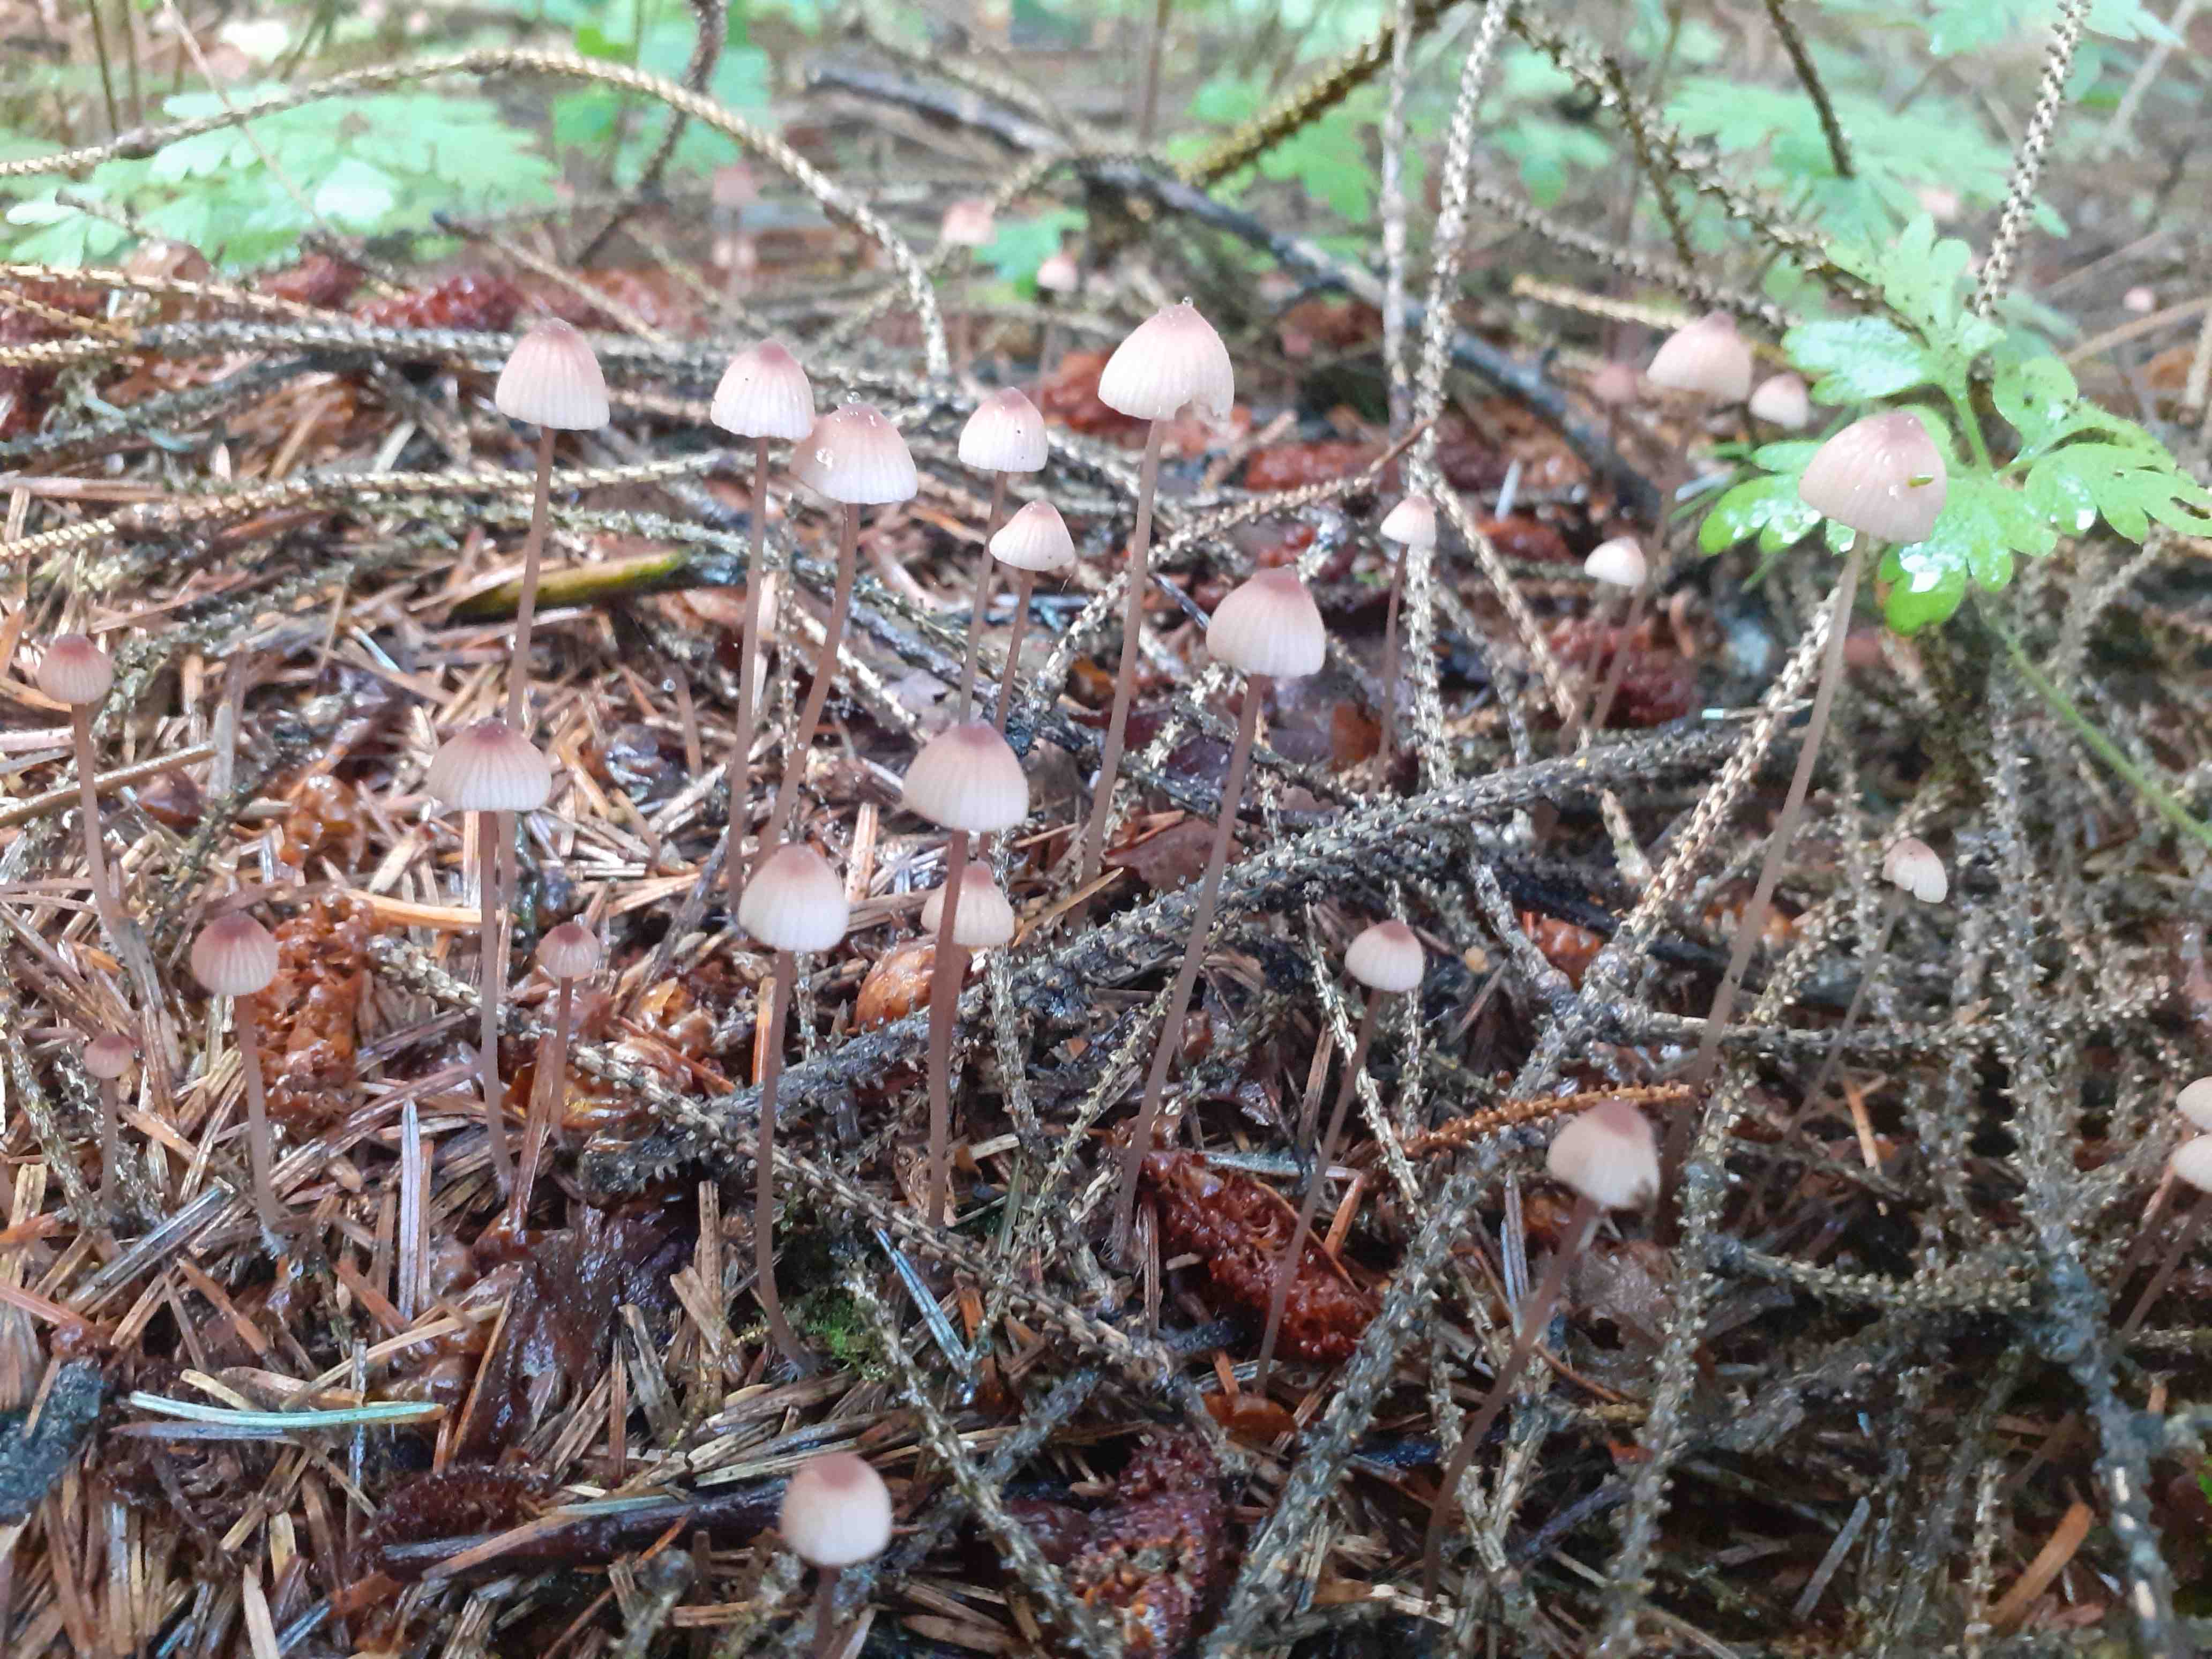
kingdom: Fungi
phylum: Basidiomycota
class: Agaricomycetes
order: Agaricales
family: Mycenaceae
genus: Mycena
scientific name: Mycena sanguinolenta
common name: rødmælket huesvamp
